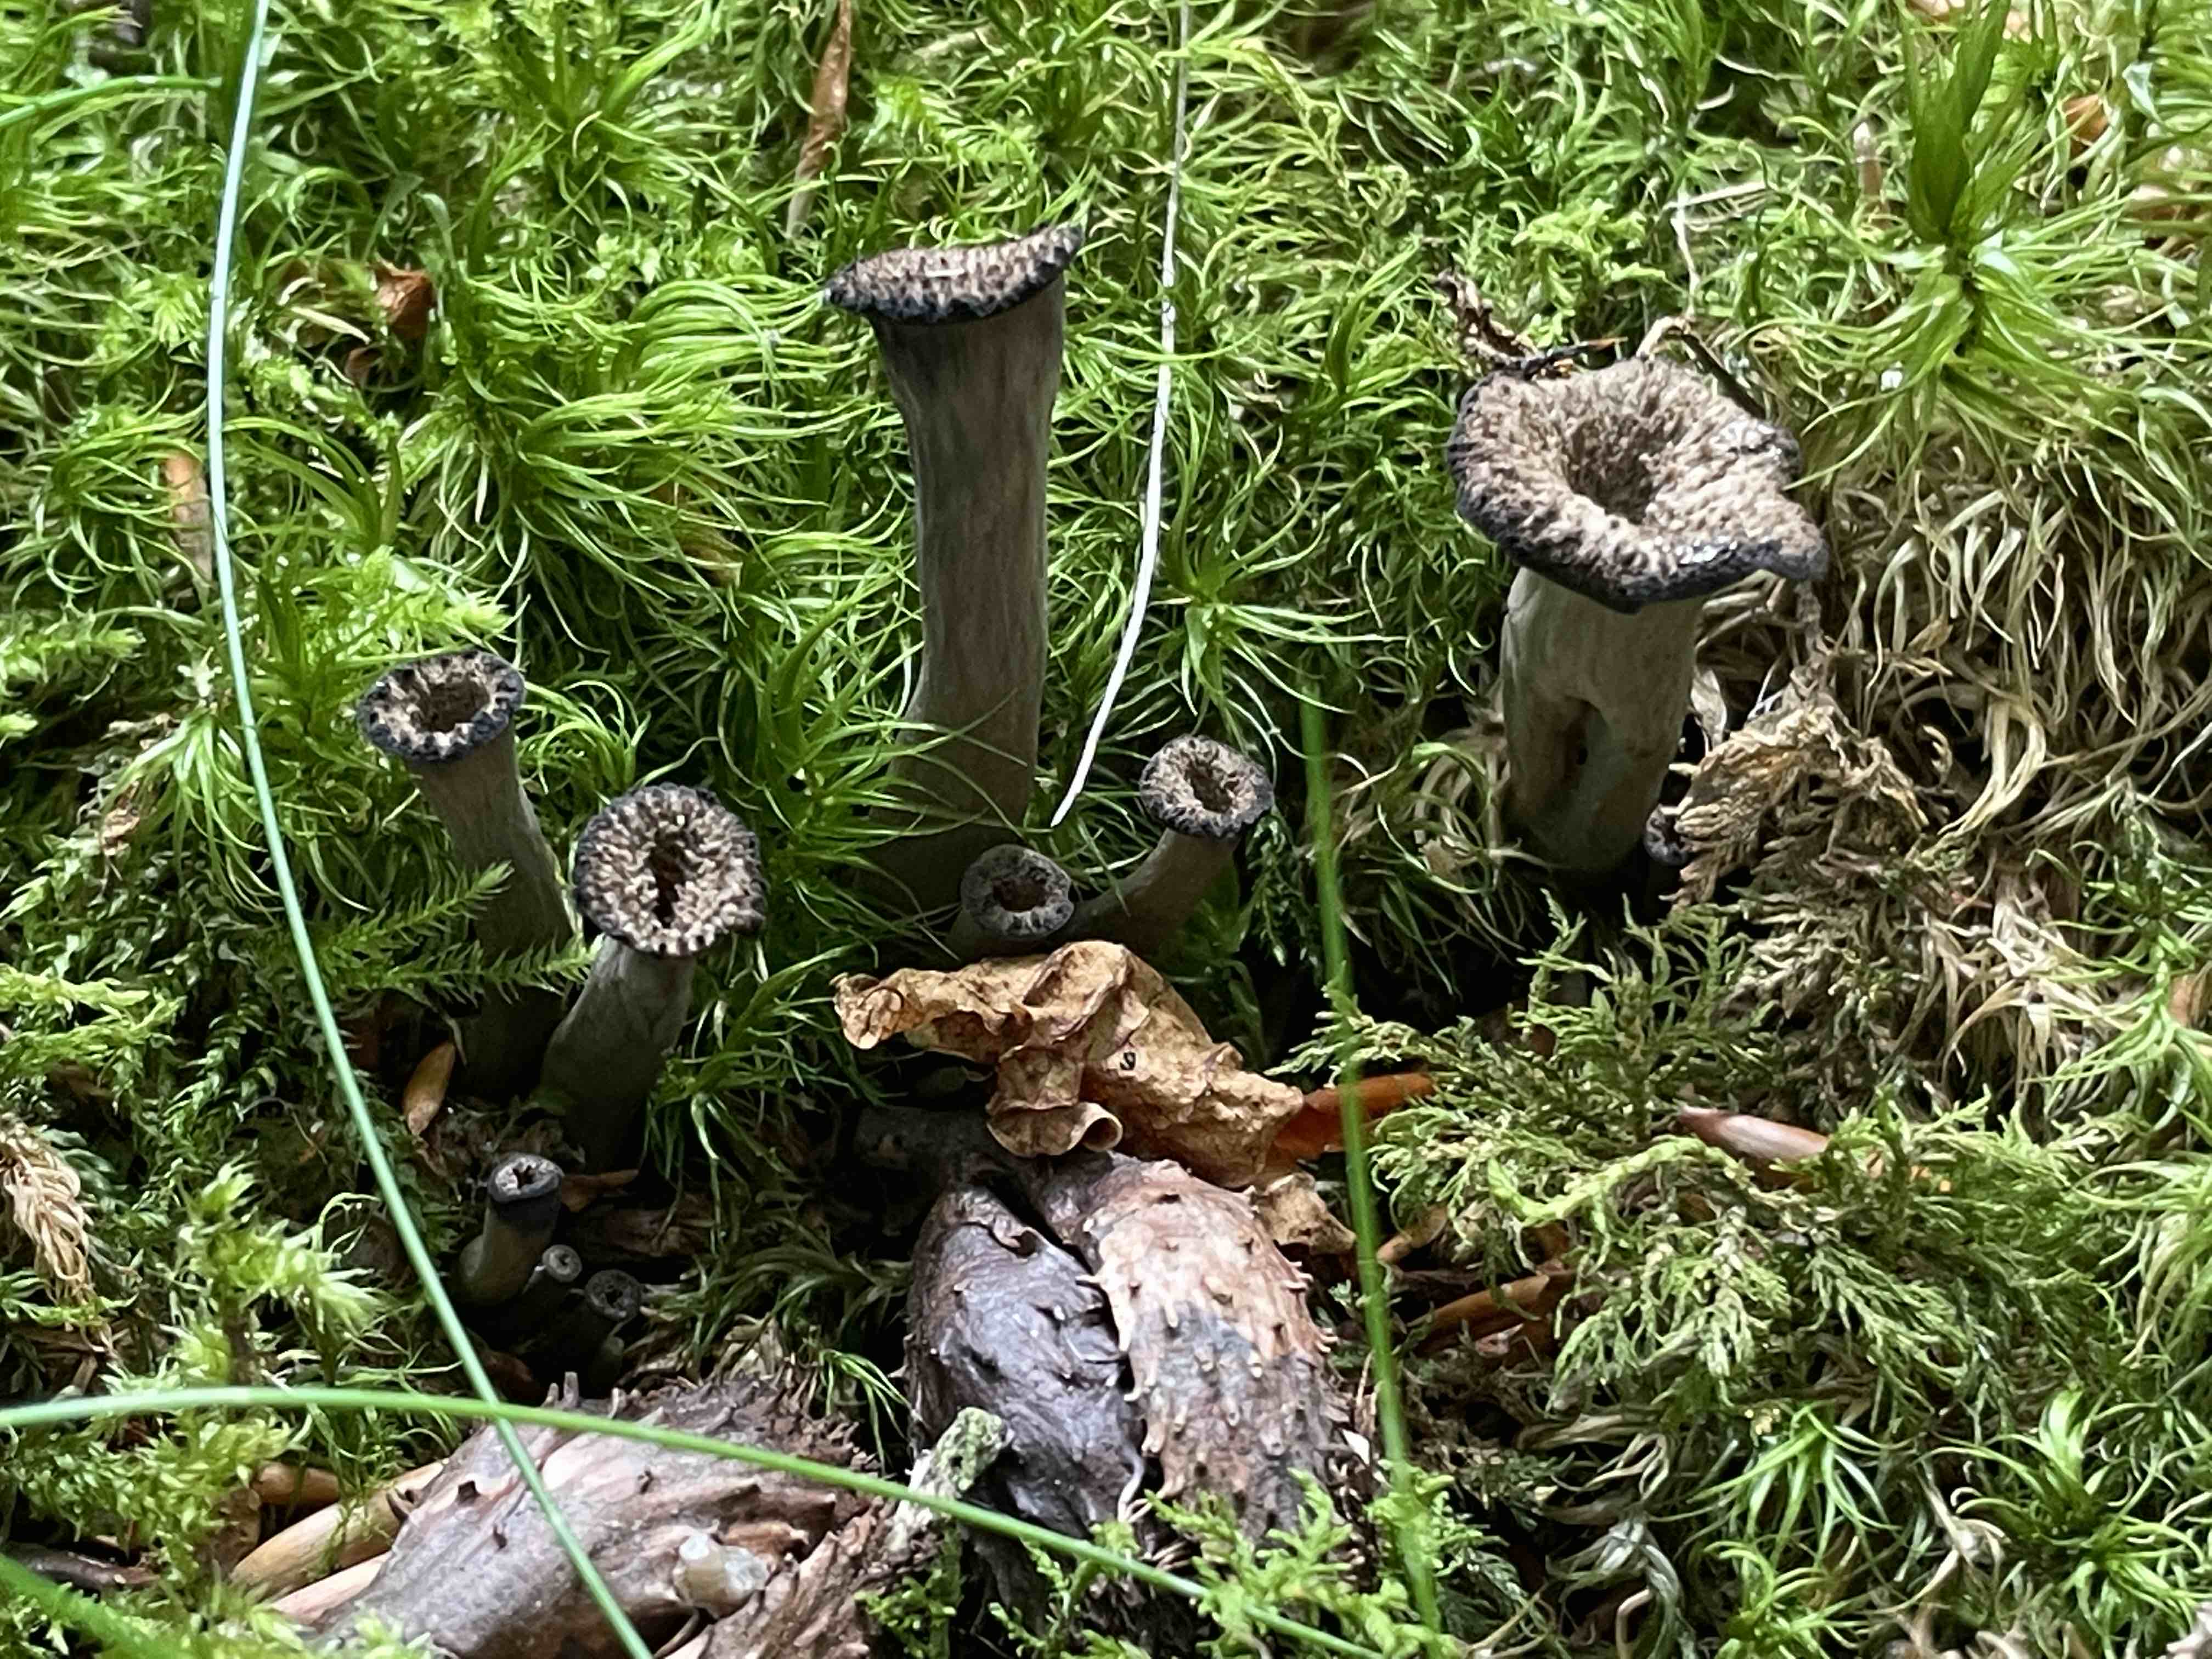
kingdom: Fungi
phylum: Basidiomycota
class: Agaricomycetes
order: Cantharellales
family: Hydnaceae
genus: Craterellus
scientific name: Craterellus cornucopioides
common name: trompetsvamp
